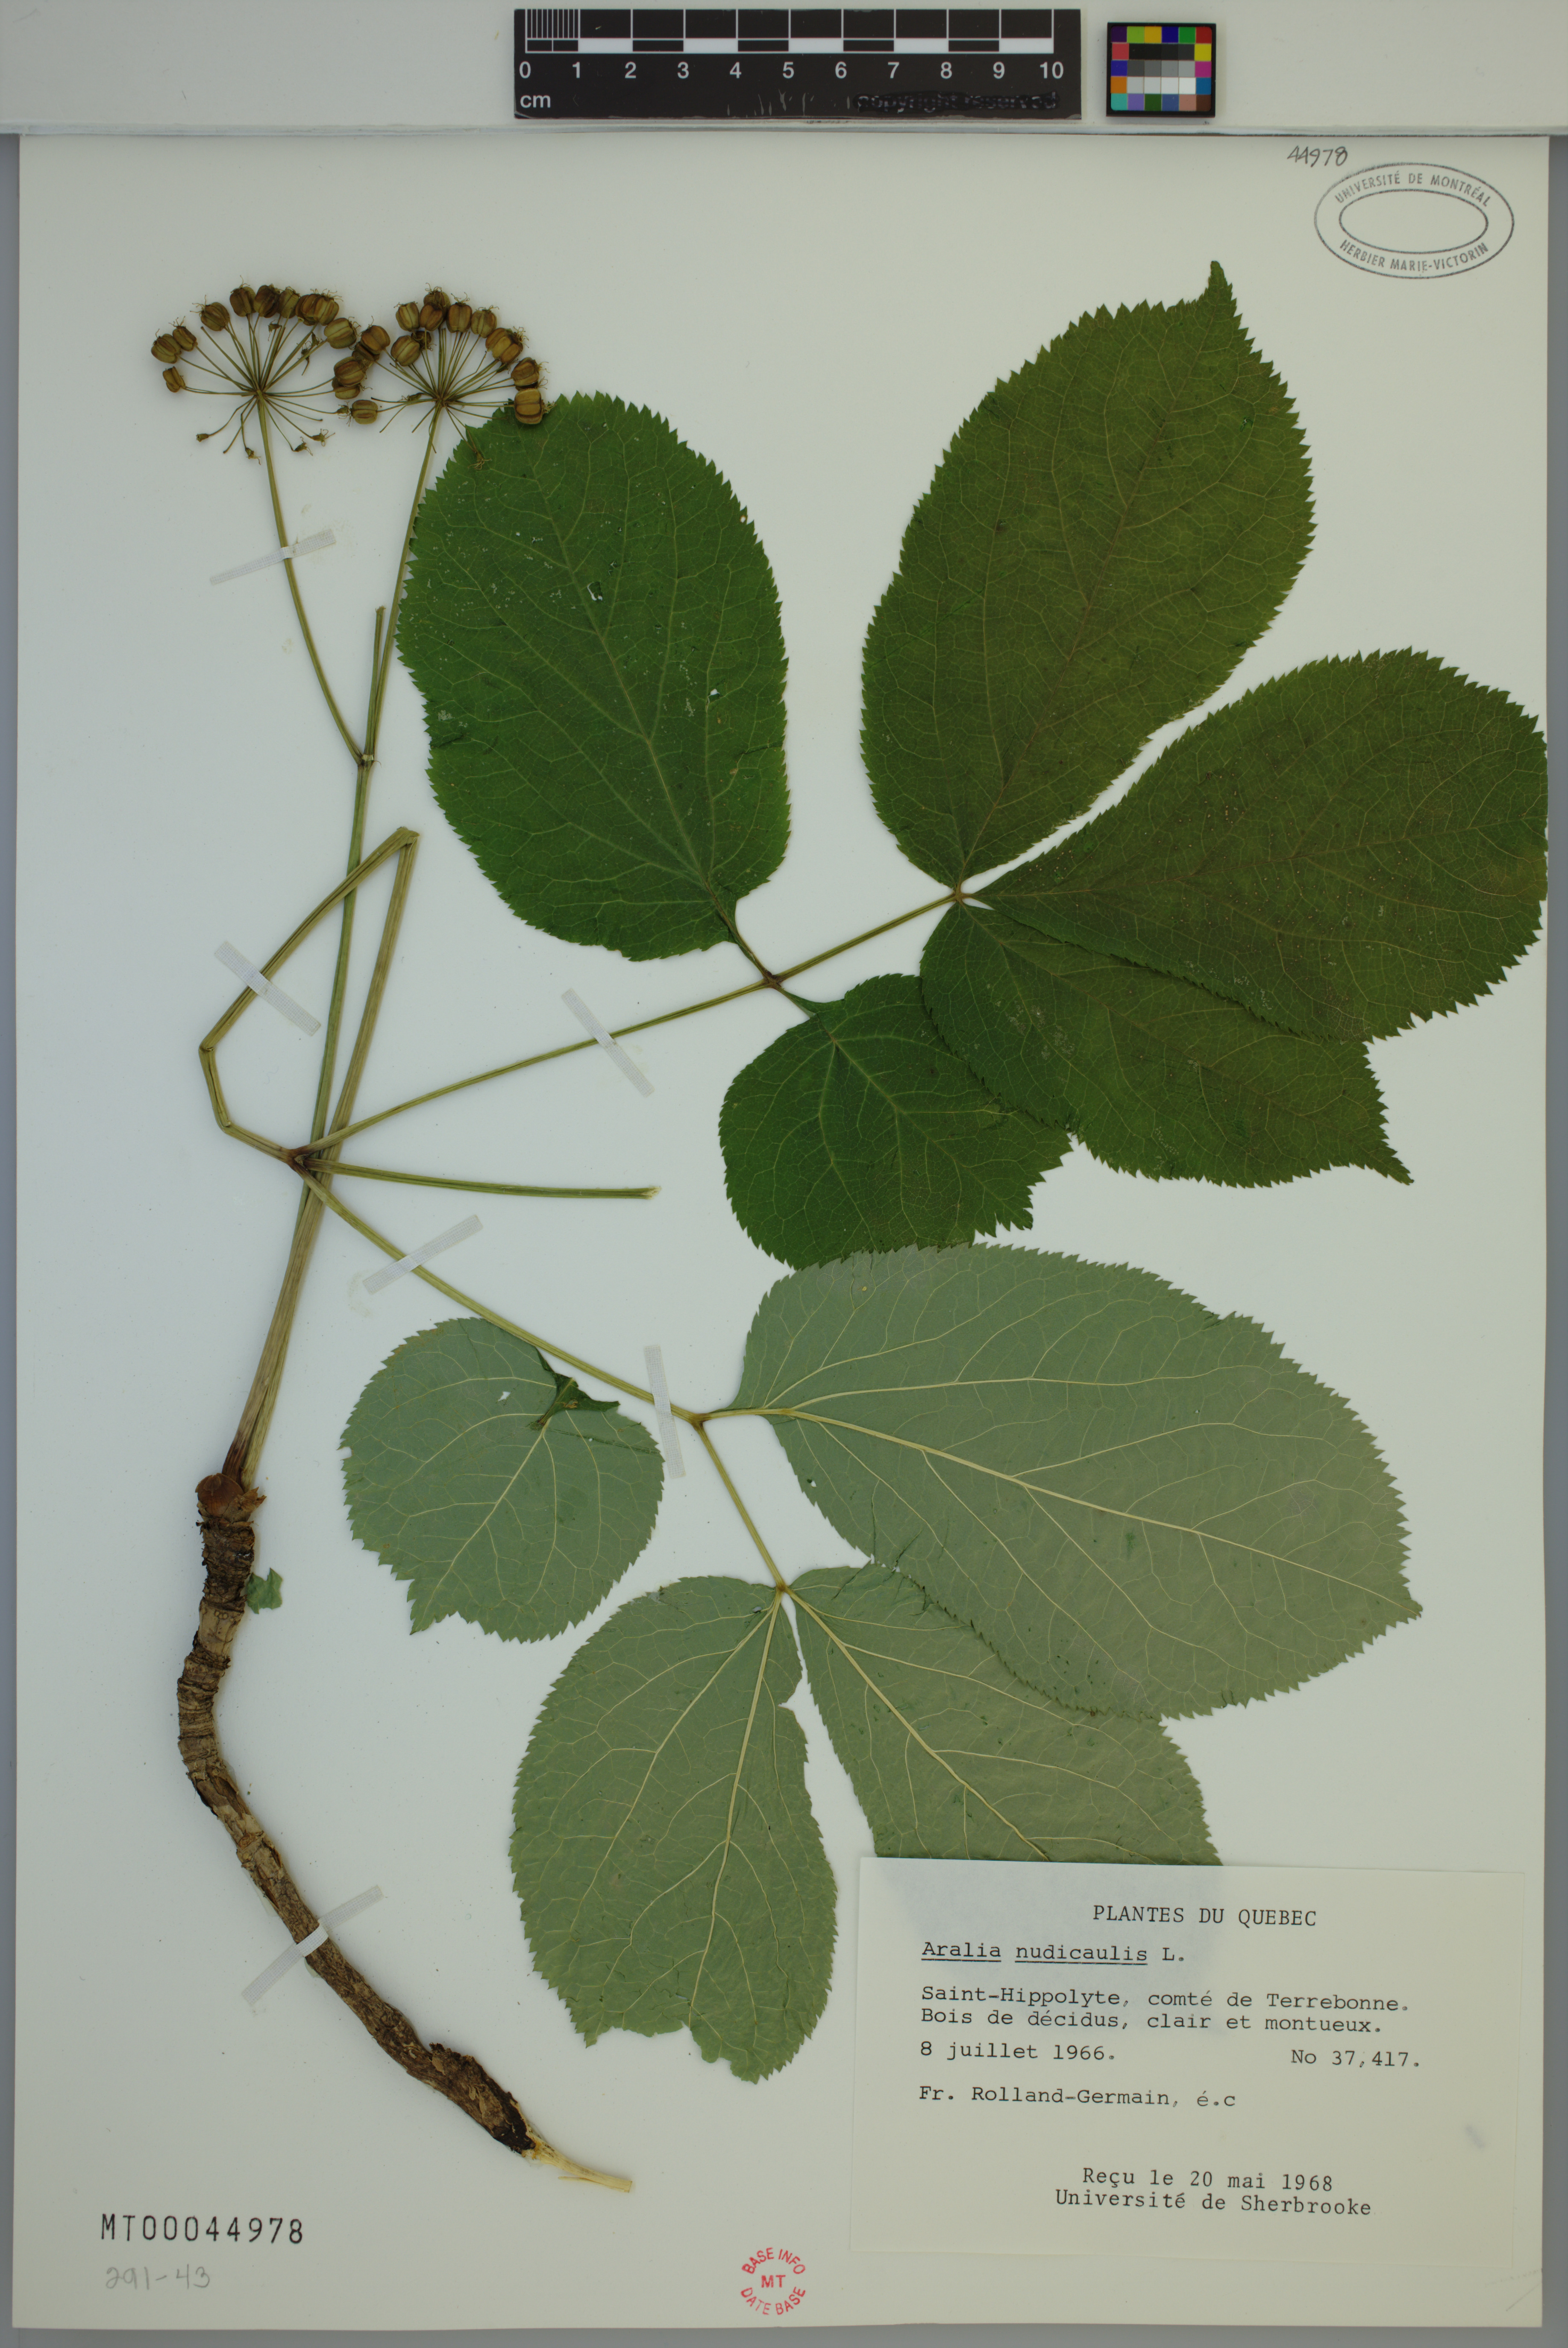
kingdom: Plantae
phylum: Tracheophyta
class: Magnoliopsida
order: Apiales
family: Araliaceae
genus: Aralia
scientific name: Aralia nudicaulis
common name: Wild sarsaparilla
